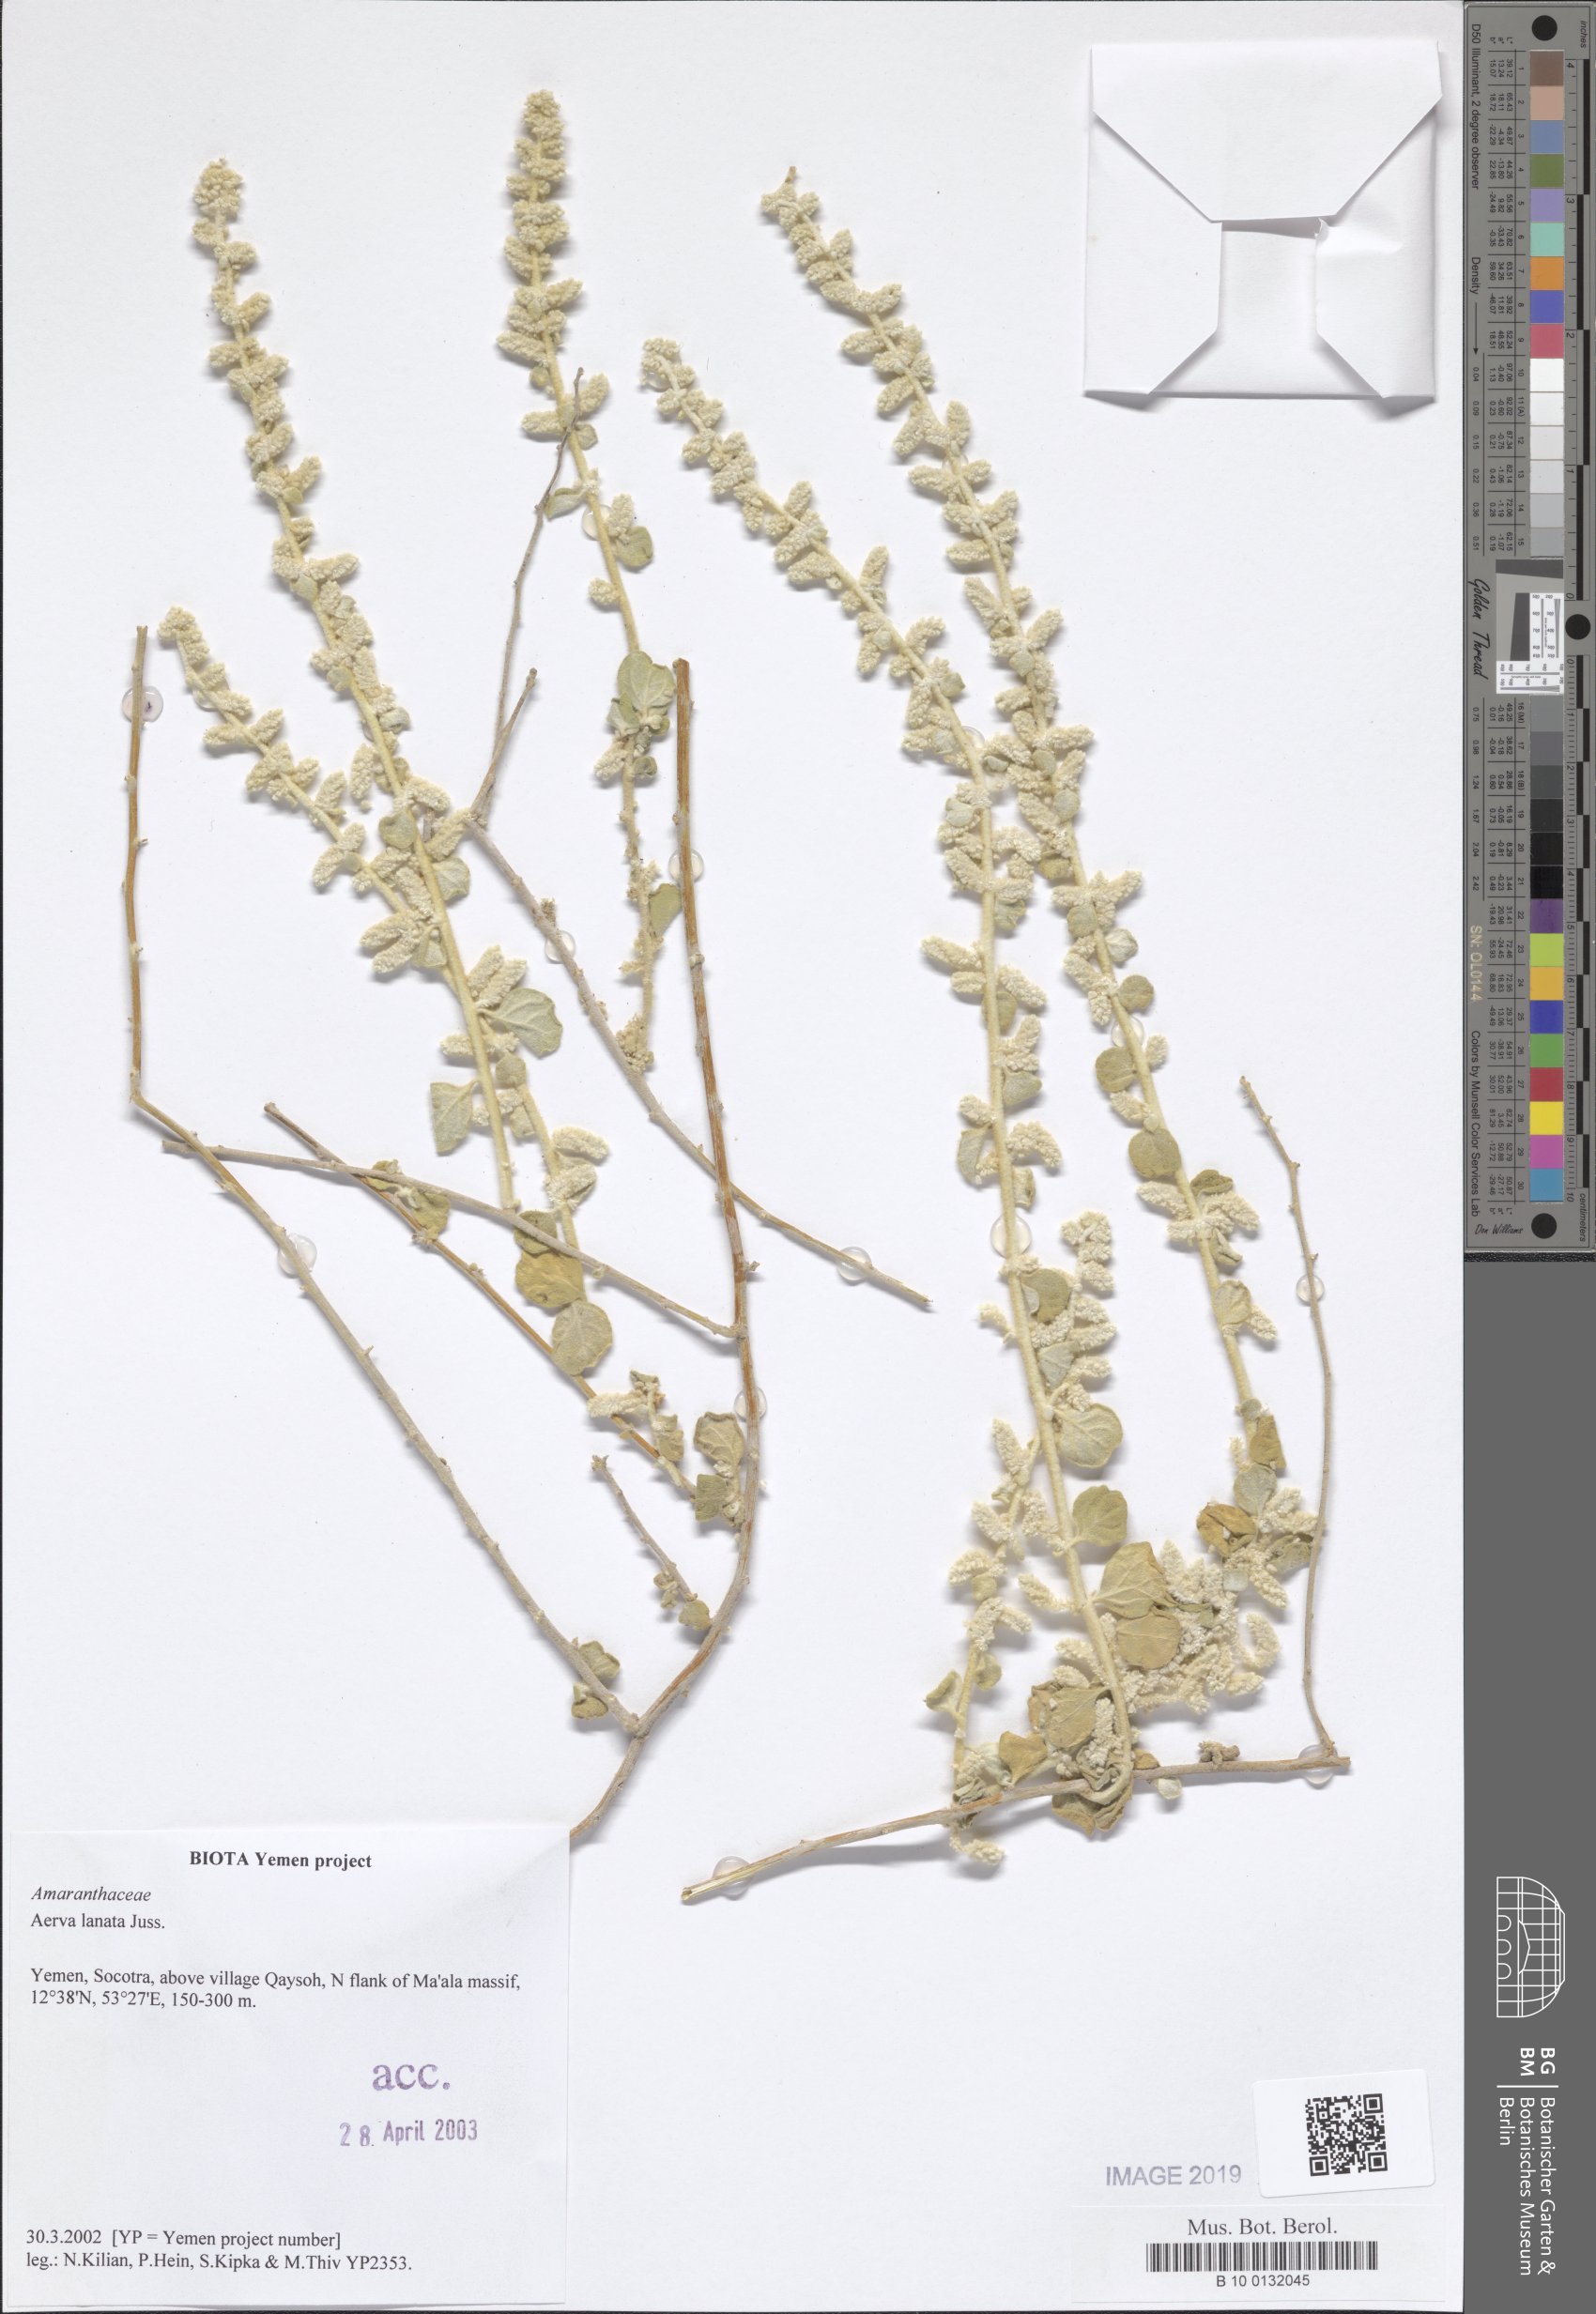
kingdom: Plantae
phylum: Tracheophyta
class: Magnoliopsida
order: Caryophyllales
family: Amaranthaceae
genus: Ouret
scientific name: Ouret lanata
